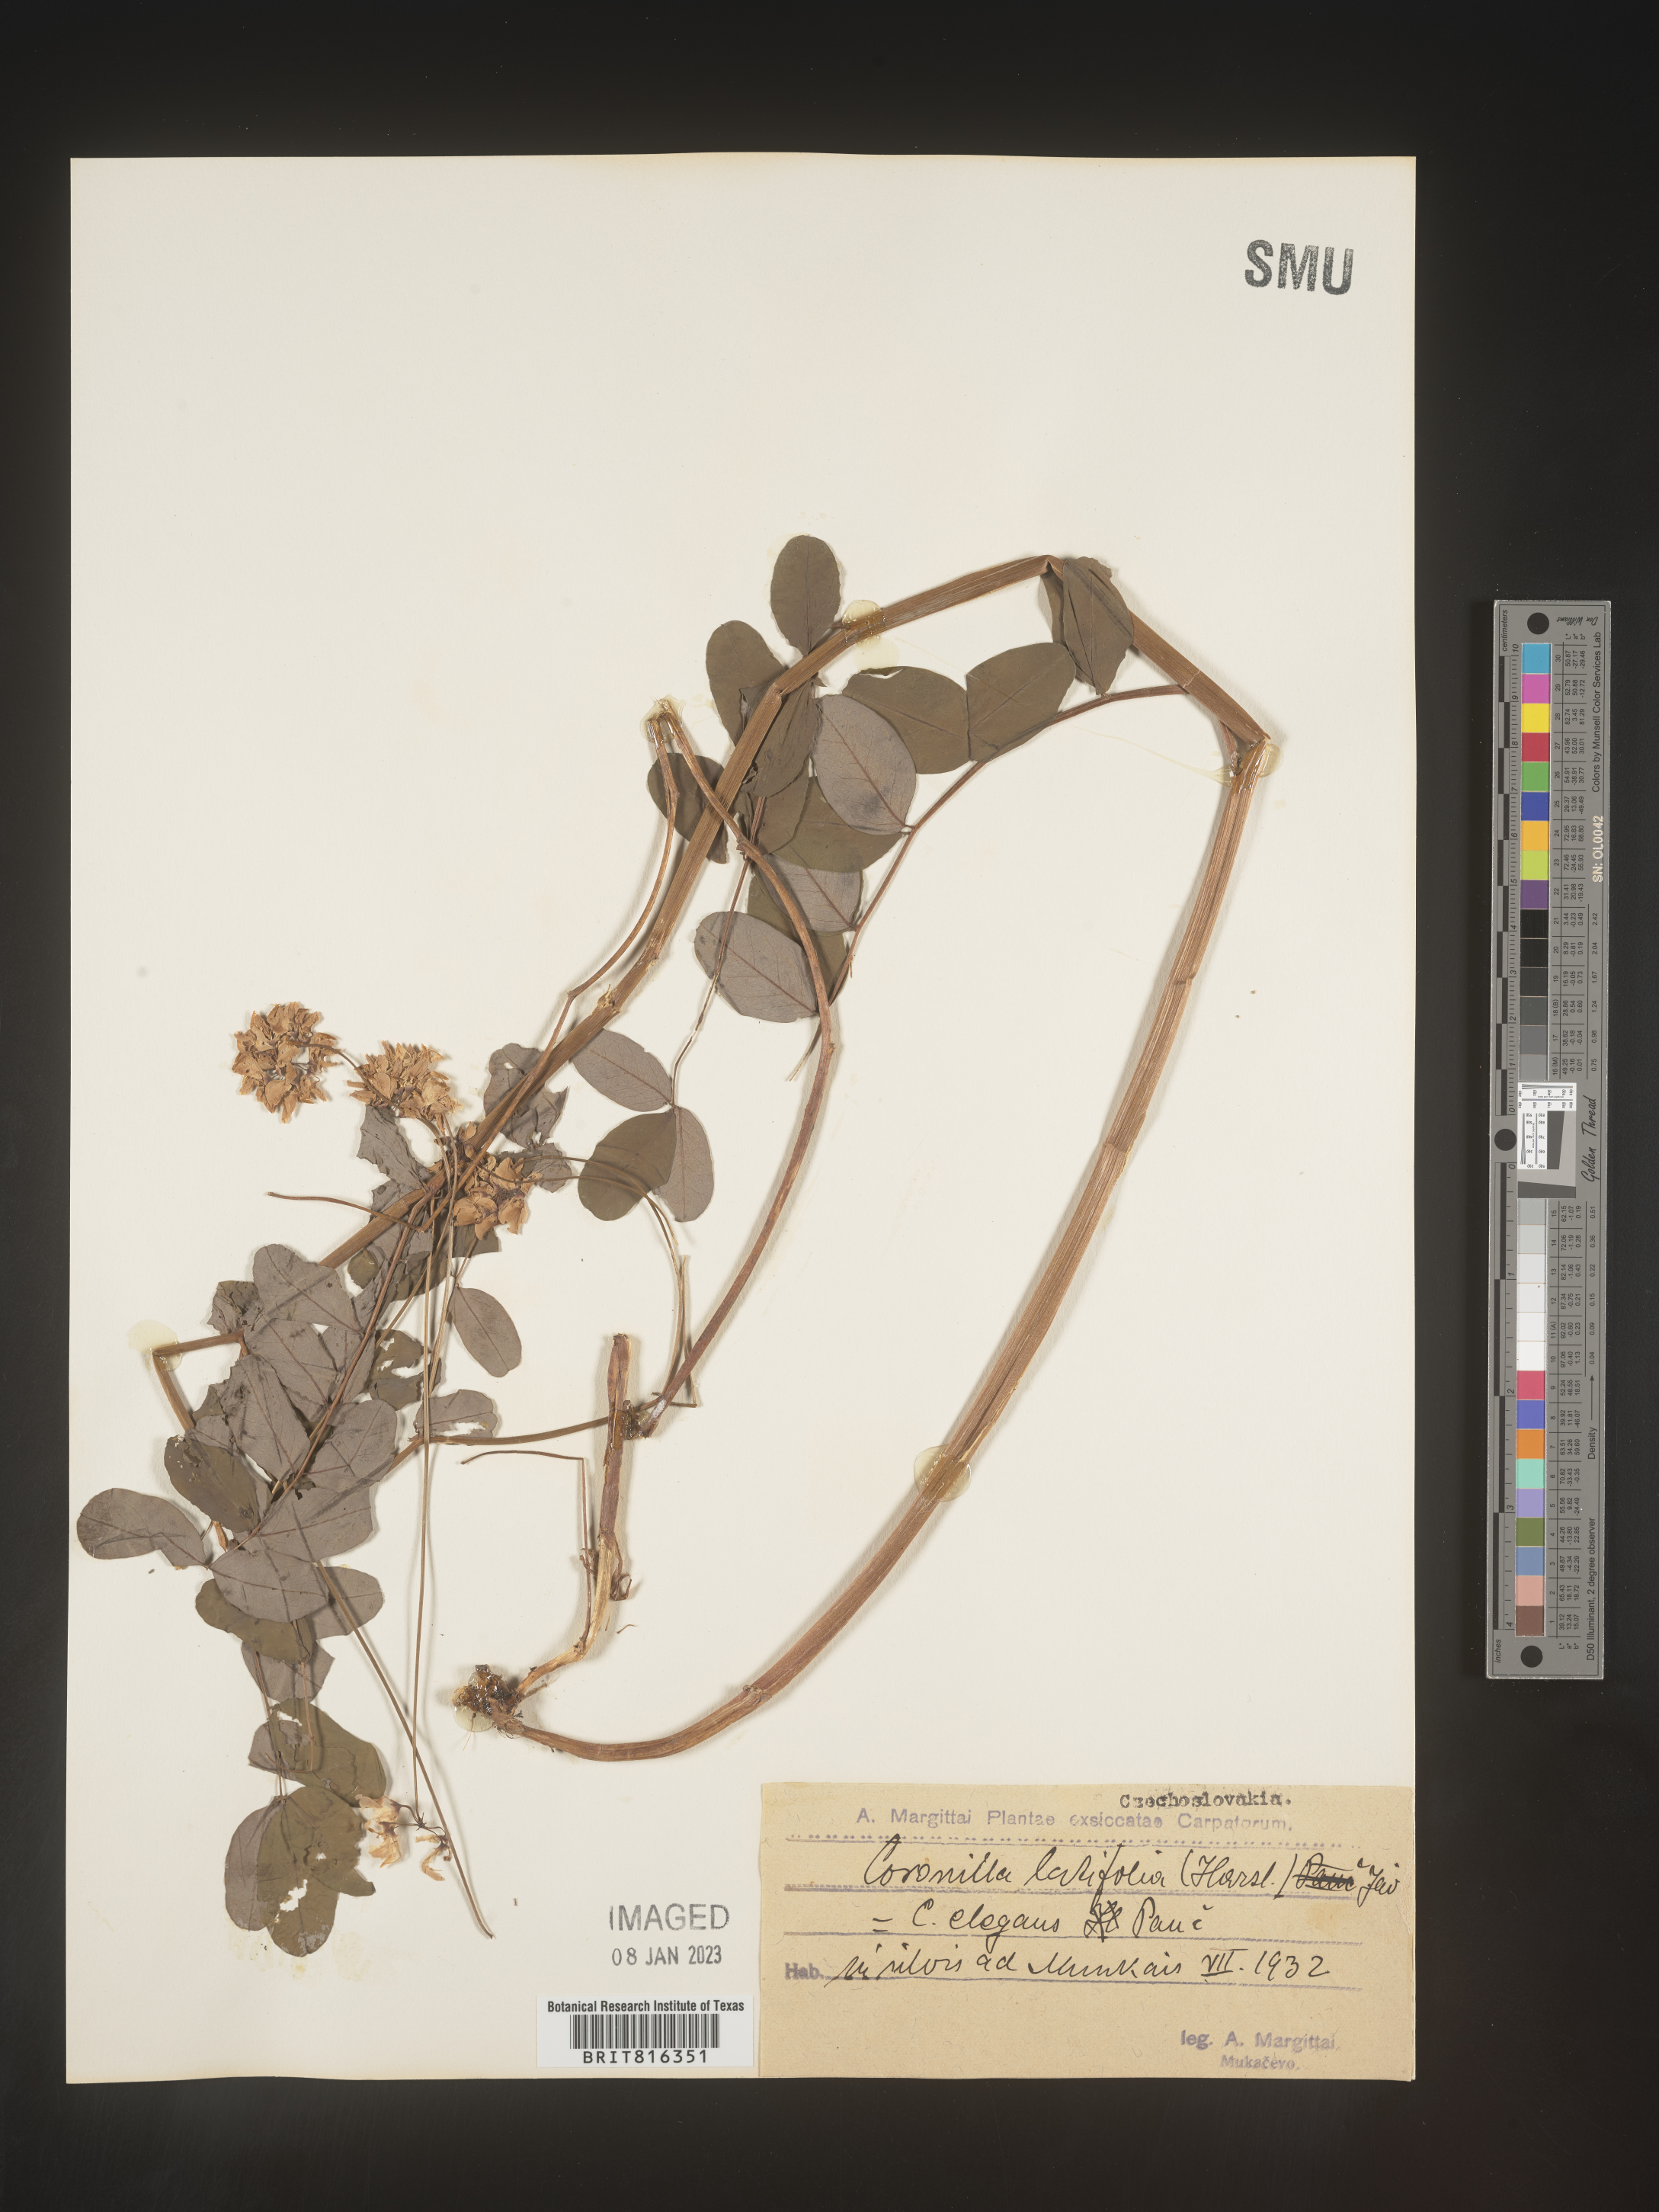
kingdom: Plantae
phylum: Tracheophyta
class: Magnoliopsida
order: Fabales
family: Fabaceae
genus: Coronilla
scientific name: Coronilla
